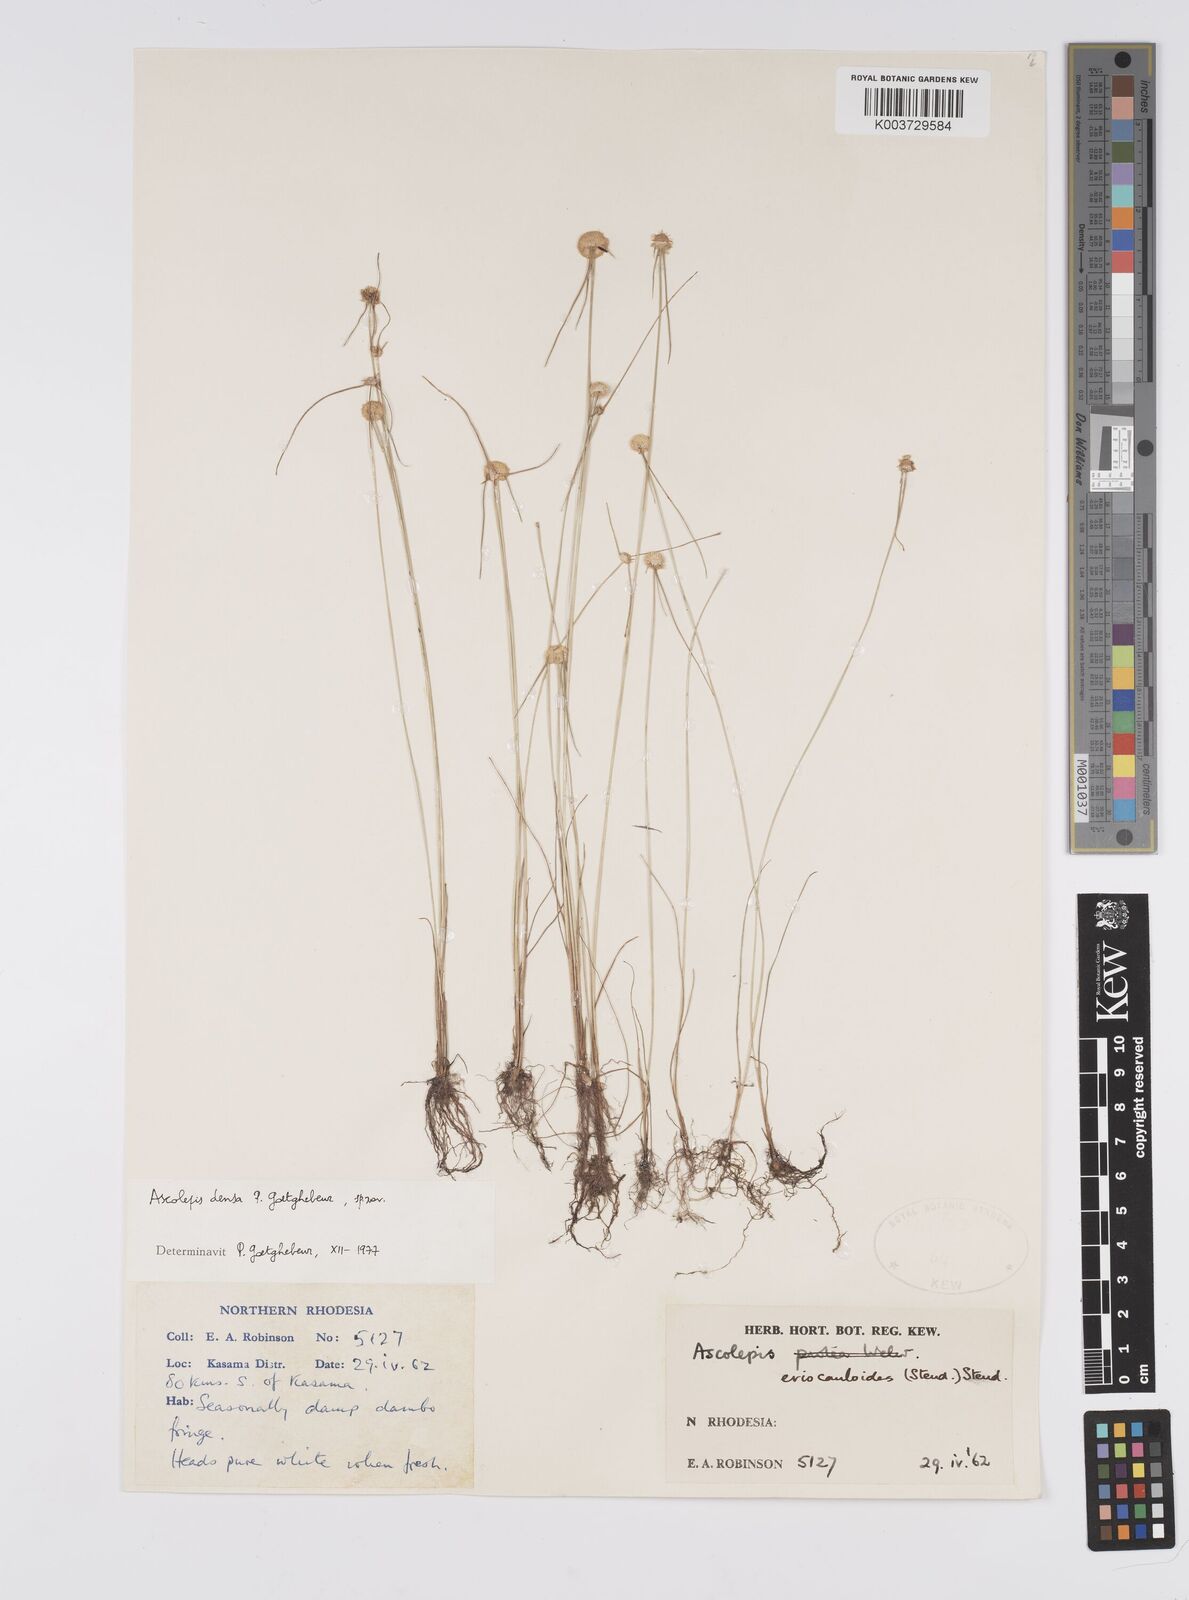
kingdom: Plantae
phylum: Tracheophyta
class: Liliopsida
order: Poales
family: Cyperaceae
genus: Cyperus
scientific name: Cyperus
